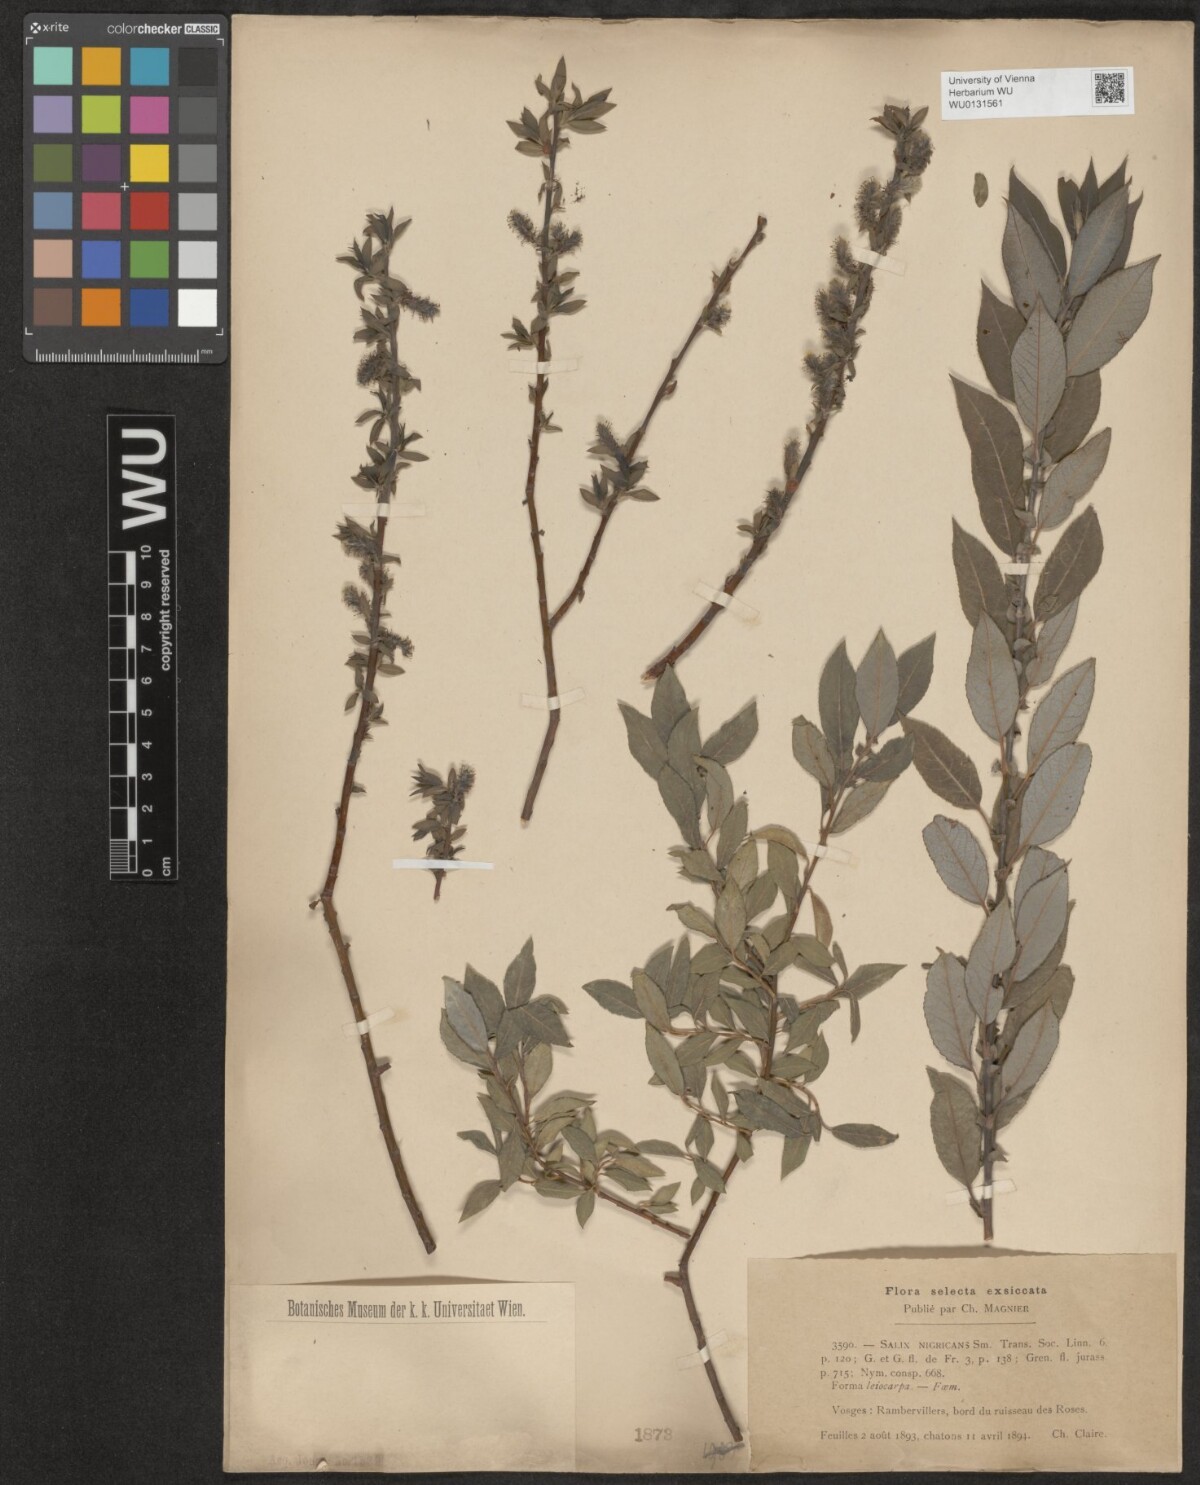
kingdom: Plantae
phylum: Tracheophyta
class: Magnoliopsida
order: Malpighiales
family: Salicaceae
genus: Salix
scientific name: Salix myrsinifolia
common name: Dark-leaved willow
